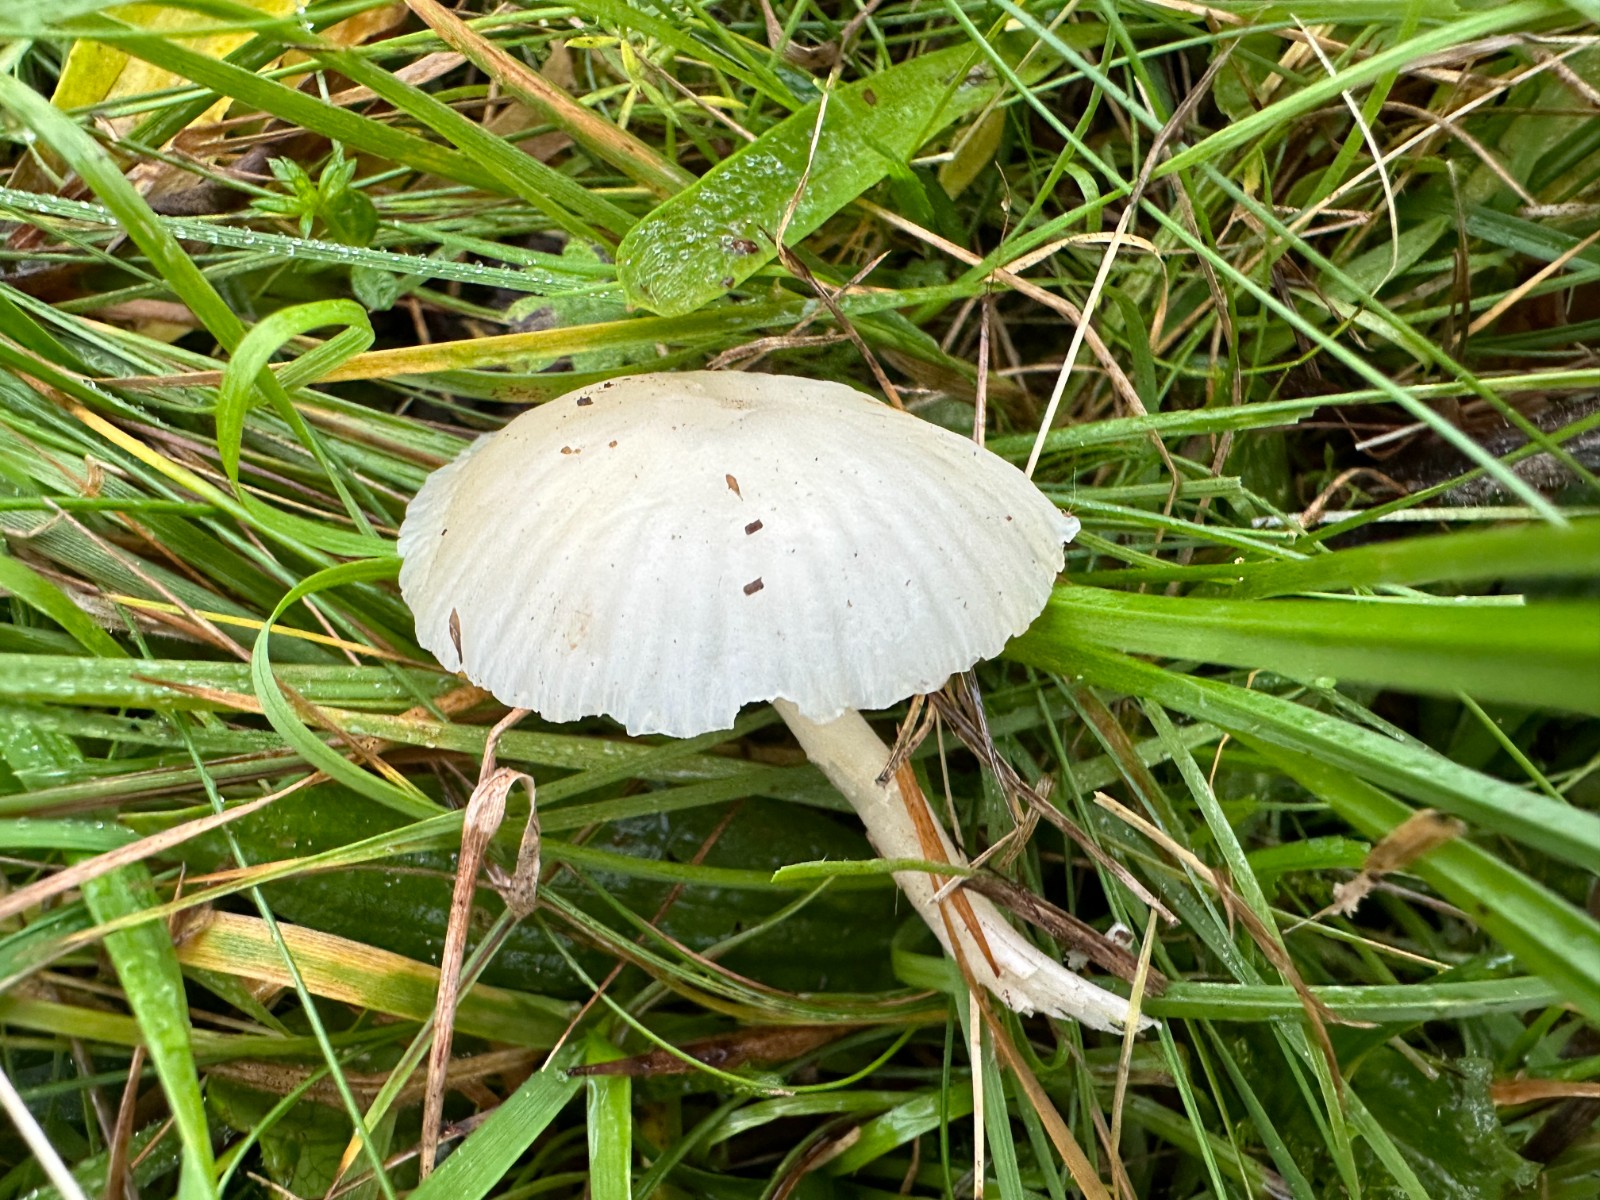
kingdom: Fungi
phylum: Basidiomycota
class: Agaricomycetes
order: Agaricales
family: Hygrophoraceae
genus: Cuphophyllus
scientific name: Cuphophyllus virgineus
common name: snehvid vokshat
